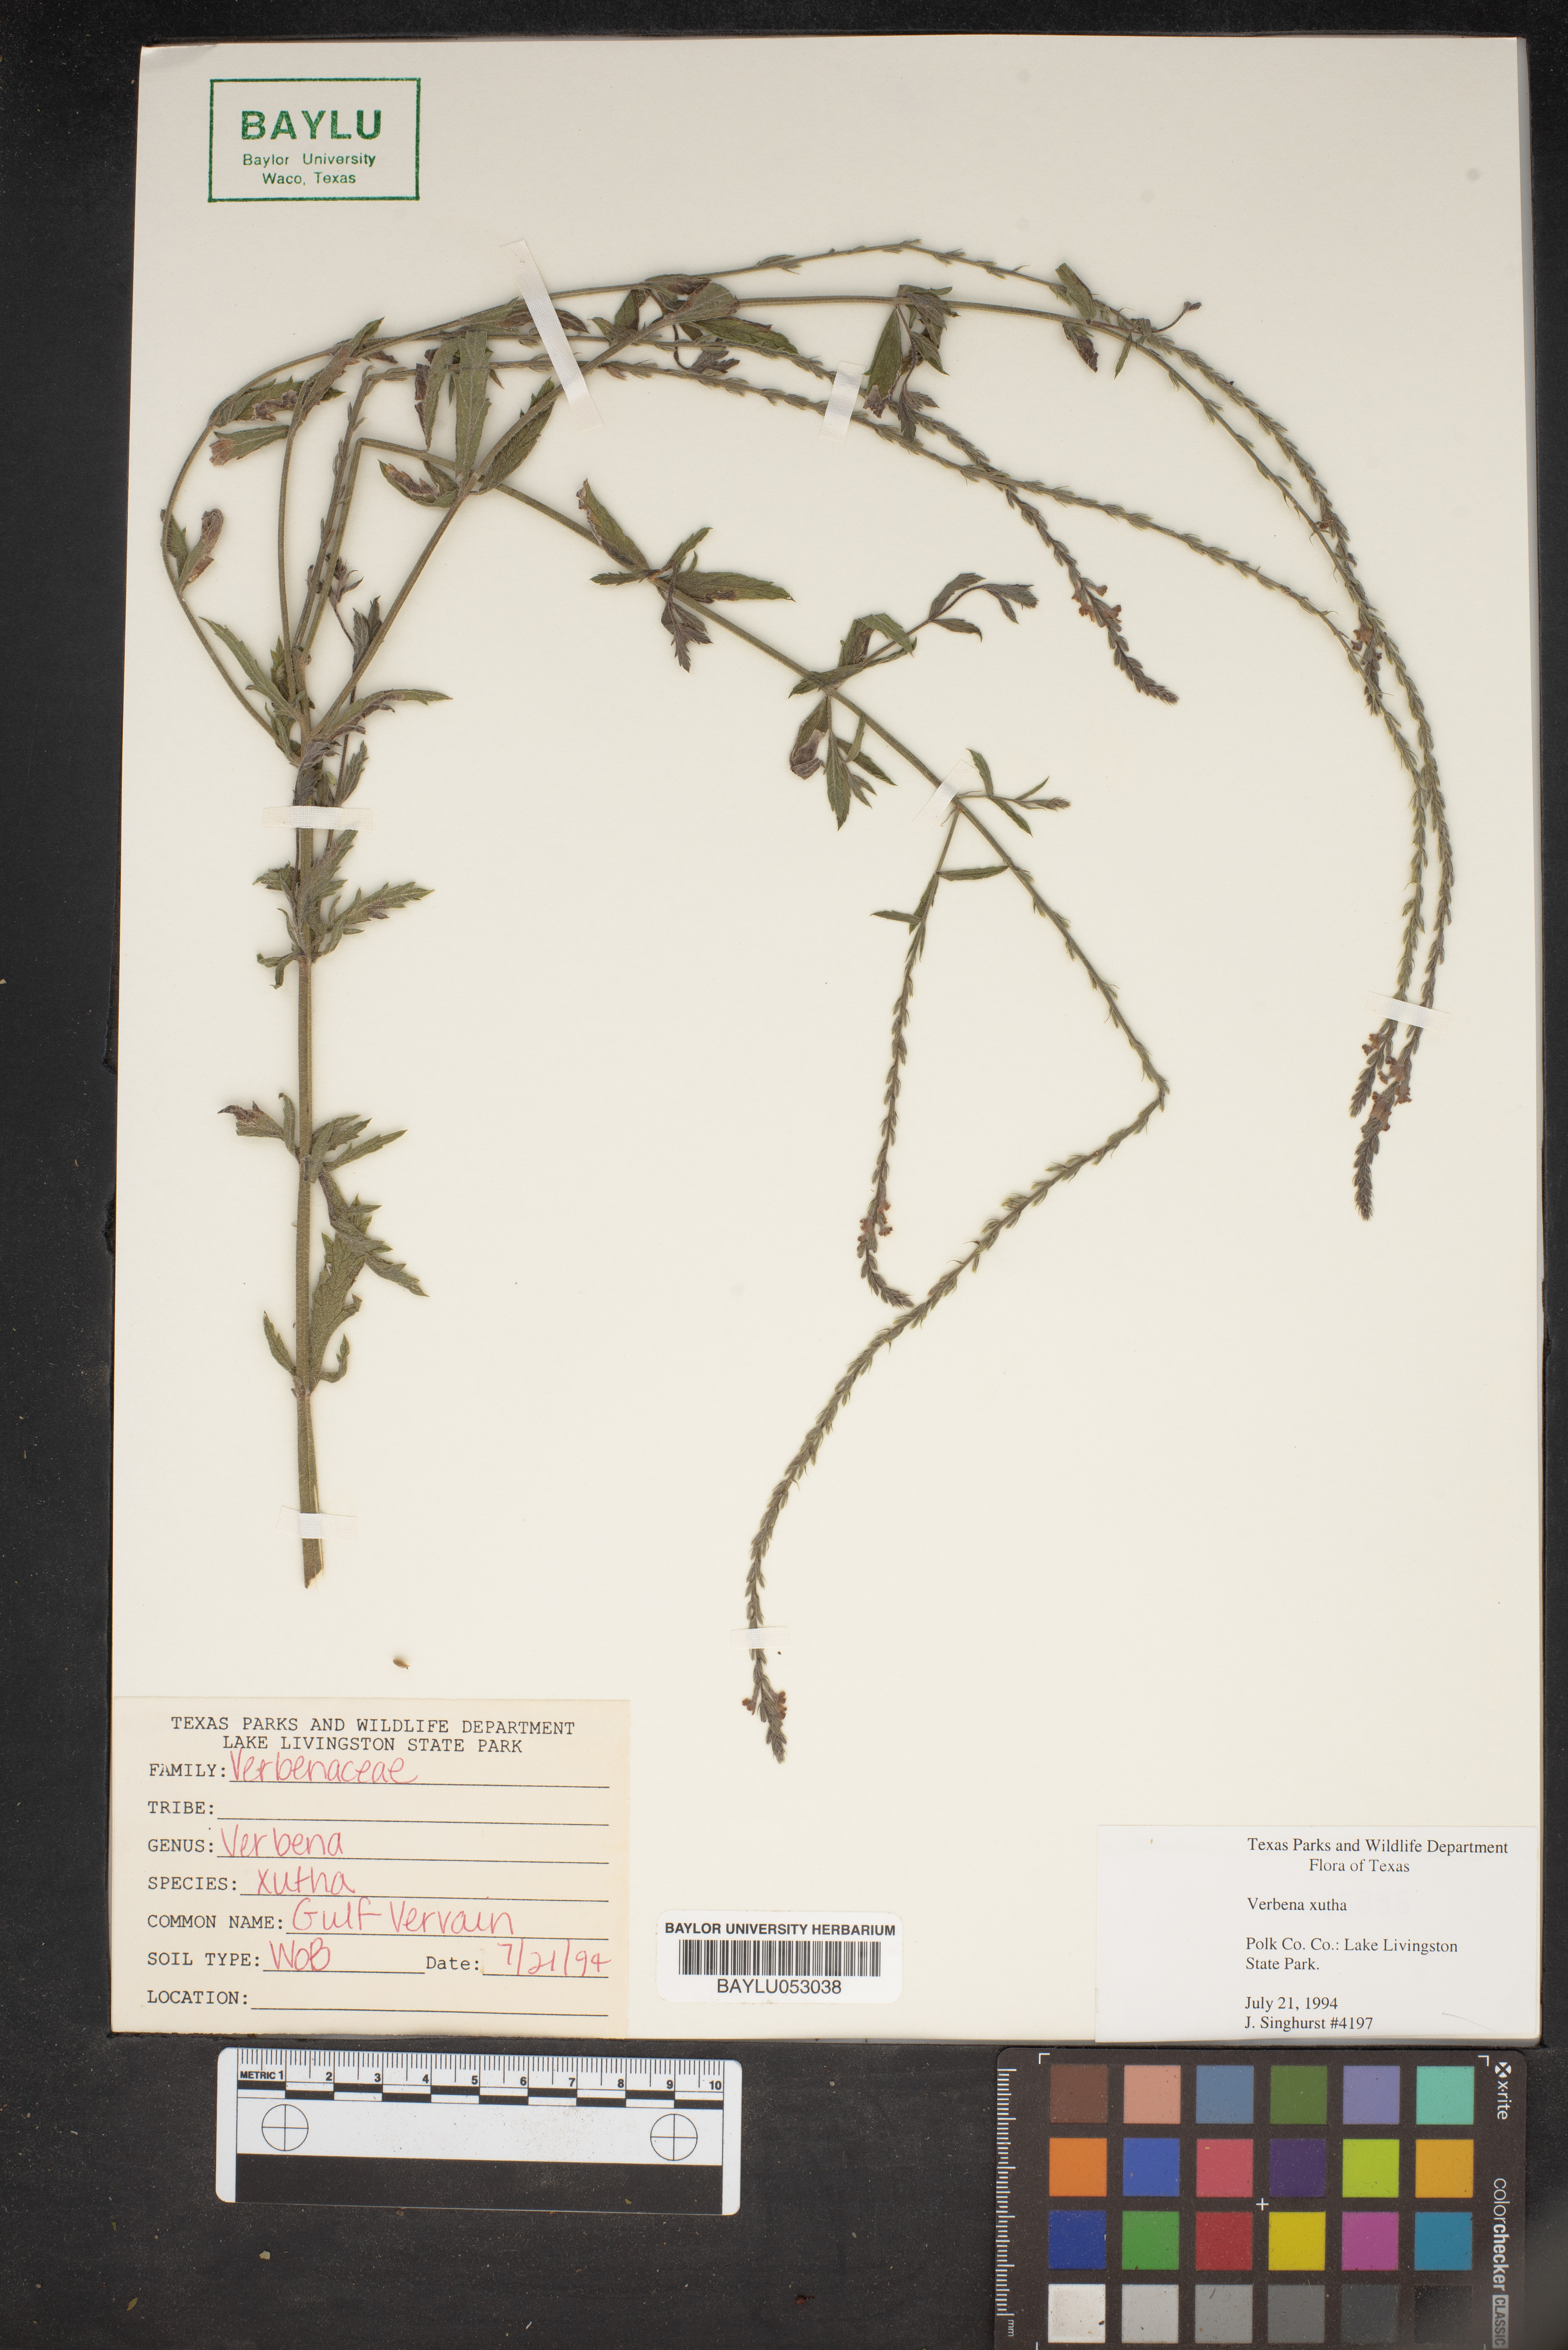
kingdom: Plantae
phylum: Tracheophyta
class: Magnoliopsida
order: Lamiales
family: Verbenaceae
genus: Verbena
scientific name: Verbena xutha
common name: Gulf vervain
